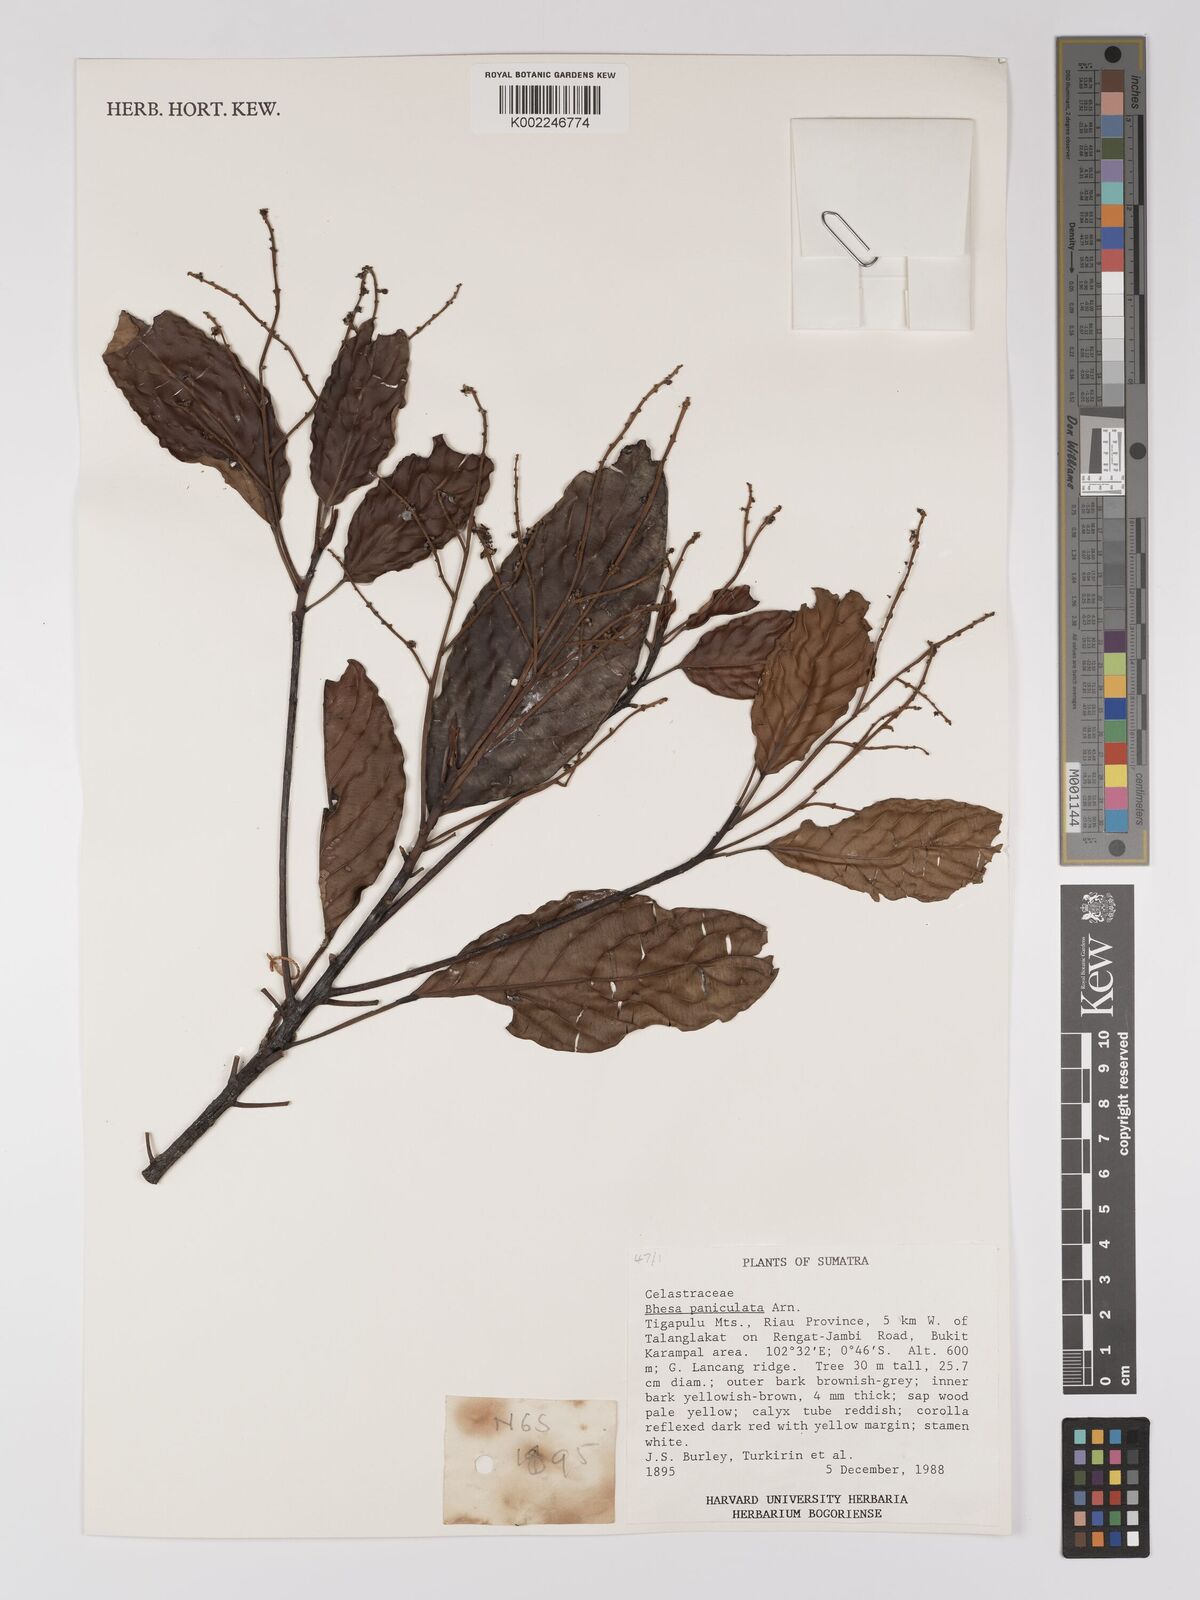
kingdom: Plantae
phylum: Tracheophyta
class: Magnoliopsida
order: Malpighiales
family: Centroplacaceae
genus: Bhesa
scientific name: Bhesa paniculata
